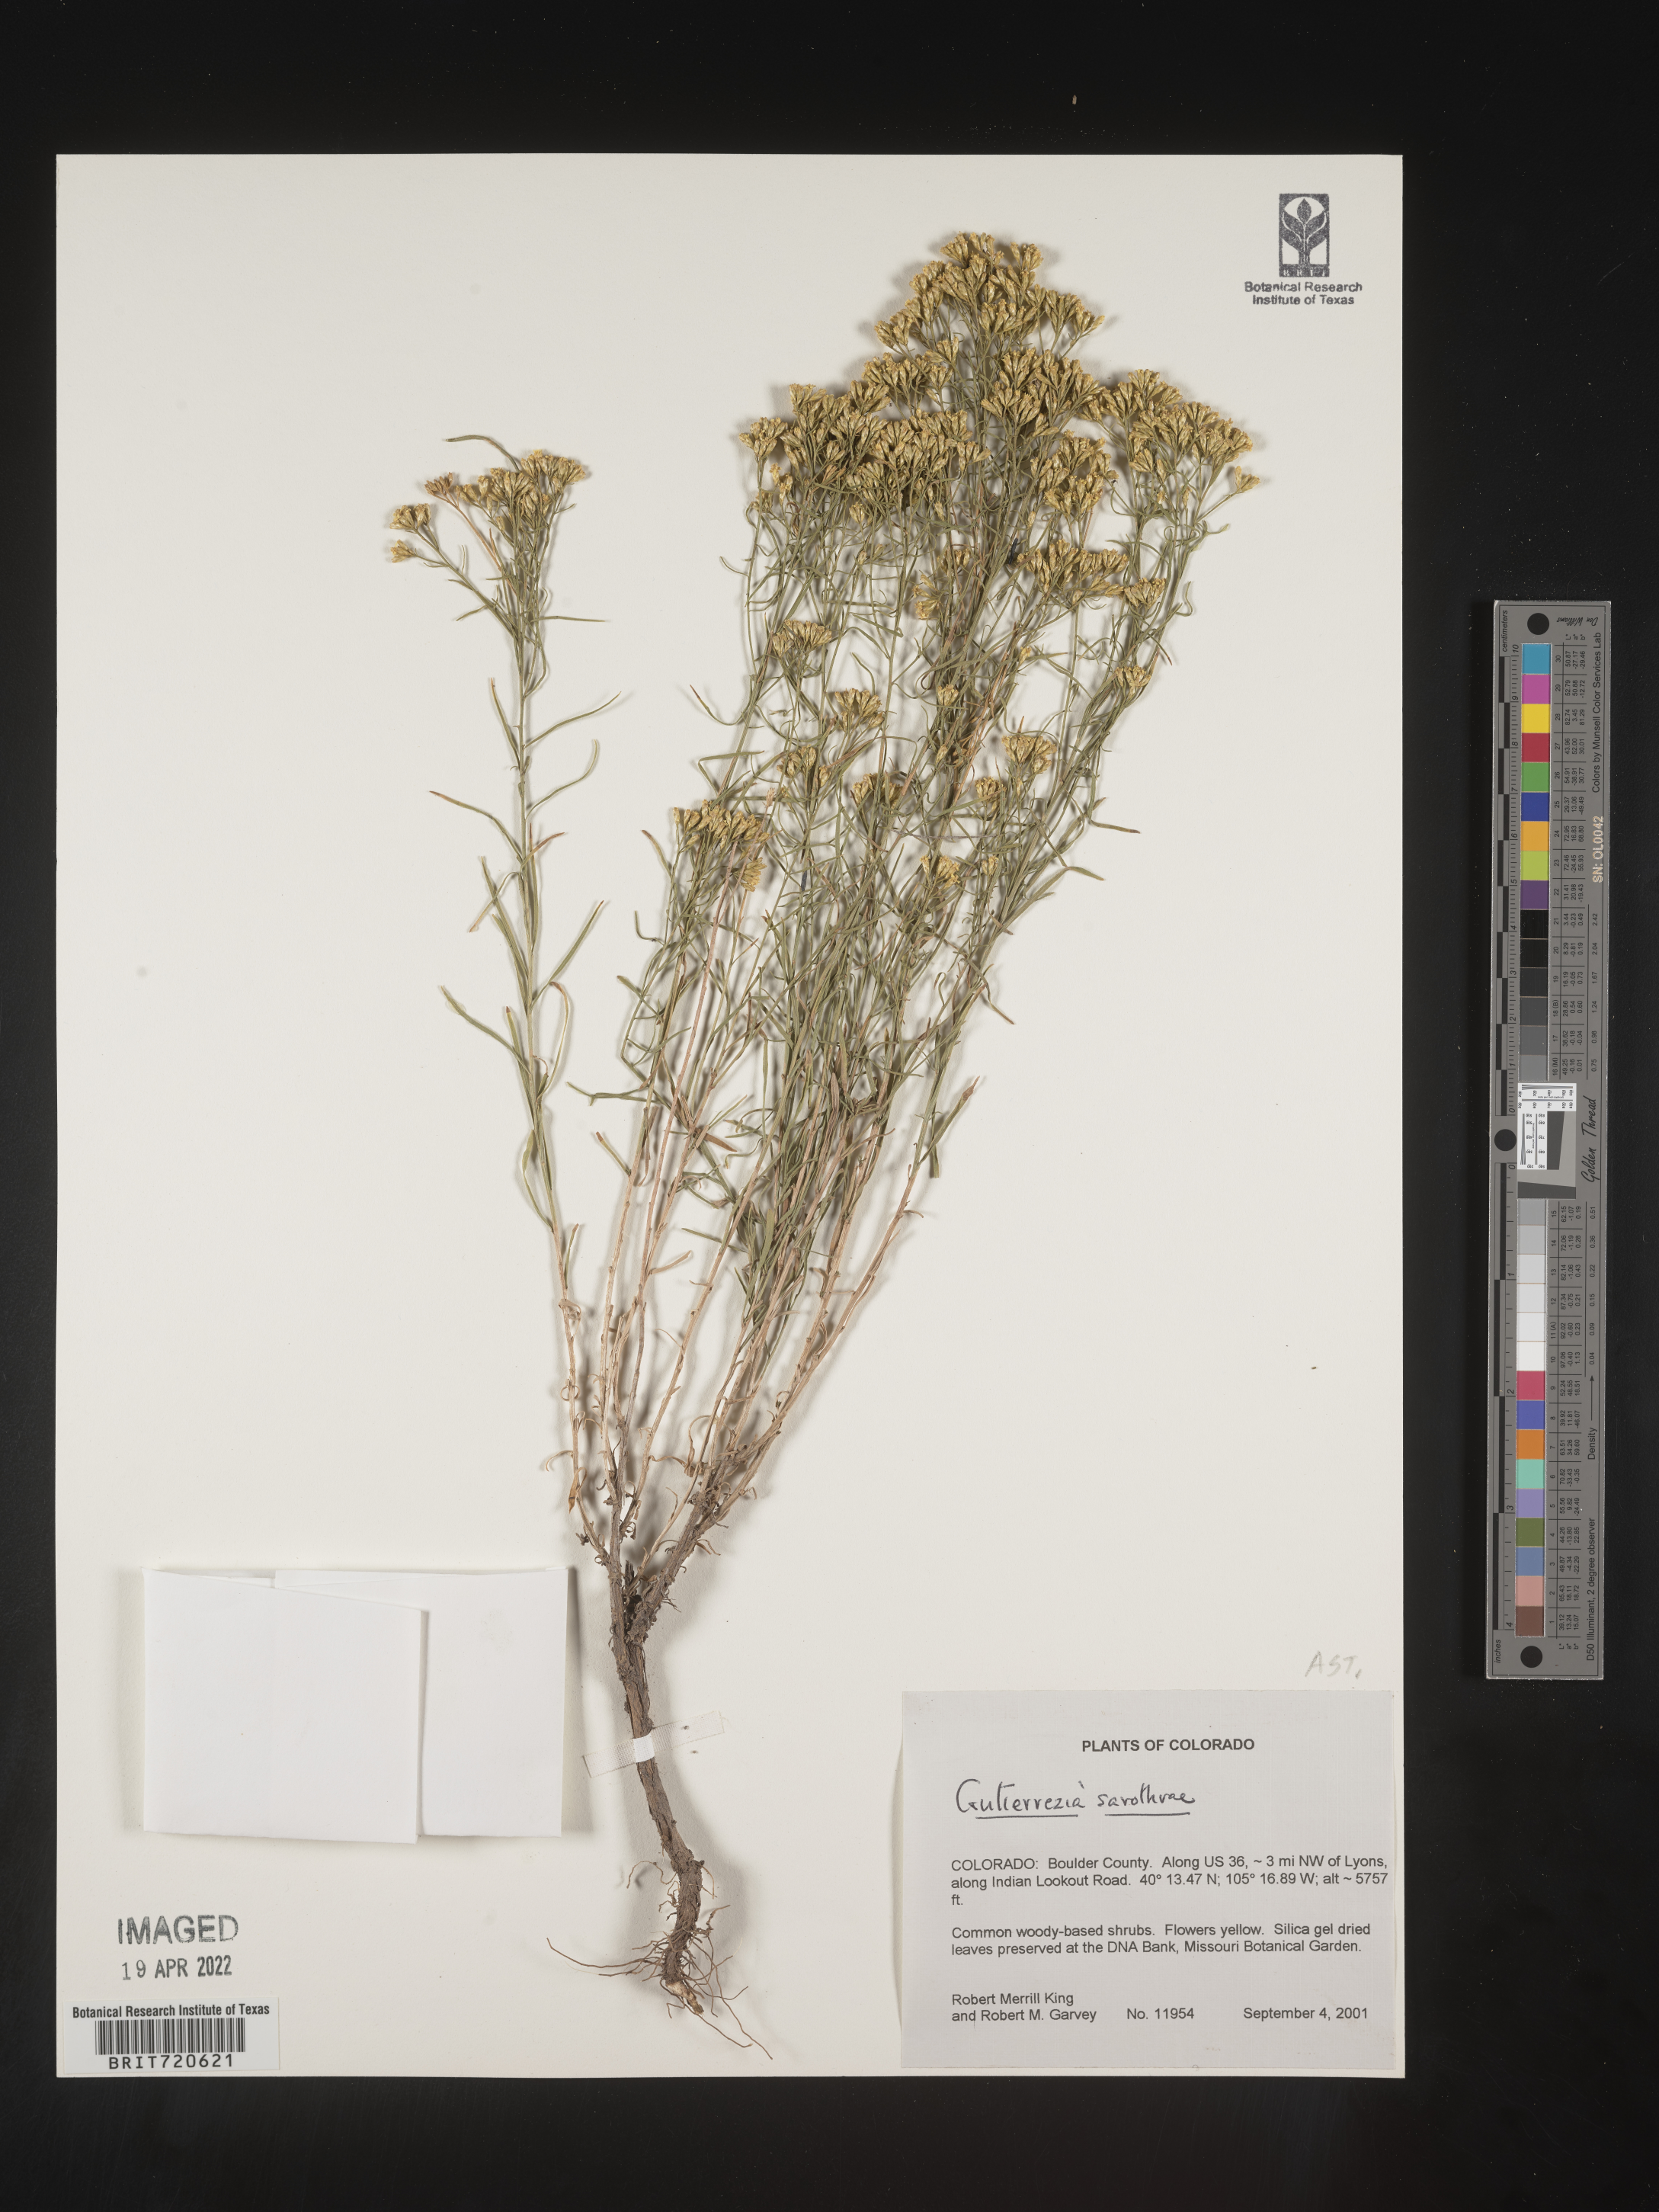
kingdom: Plantae
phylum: Tracheophyta
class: Magnoliopsida
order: Asterales
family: Asteraceae
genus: Gutierrezia
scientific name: Gutierrezia sarothrae
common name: Broom snakeweed
